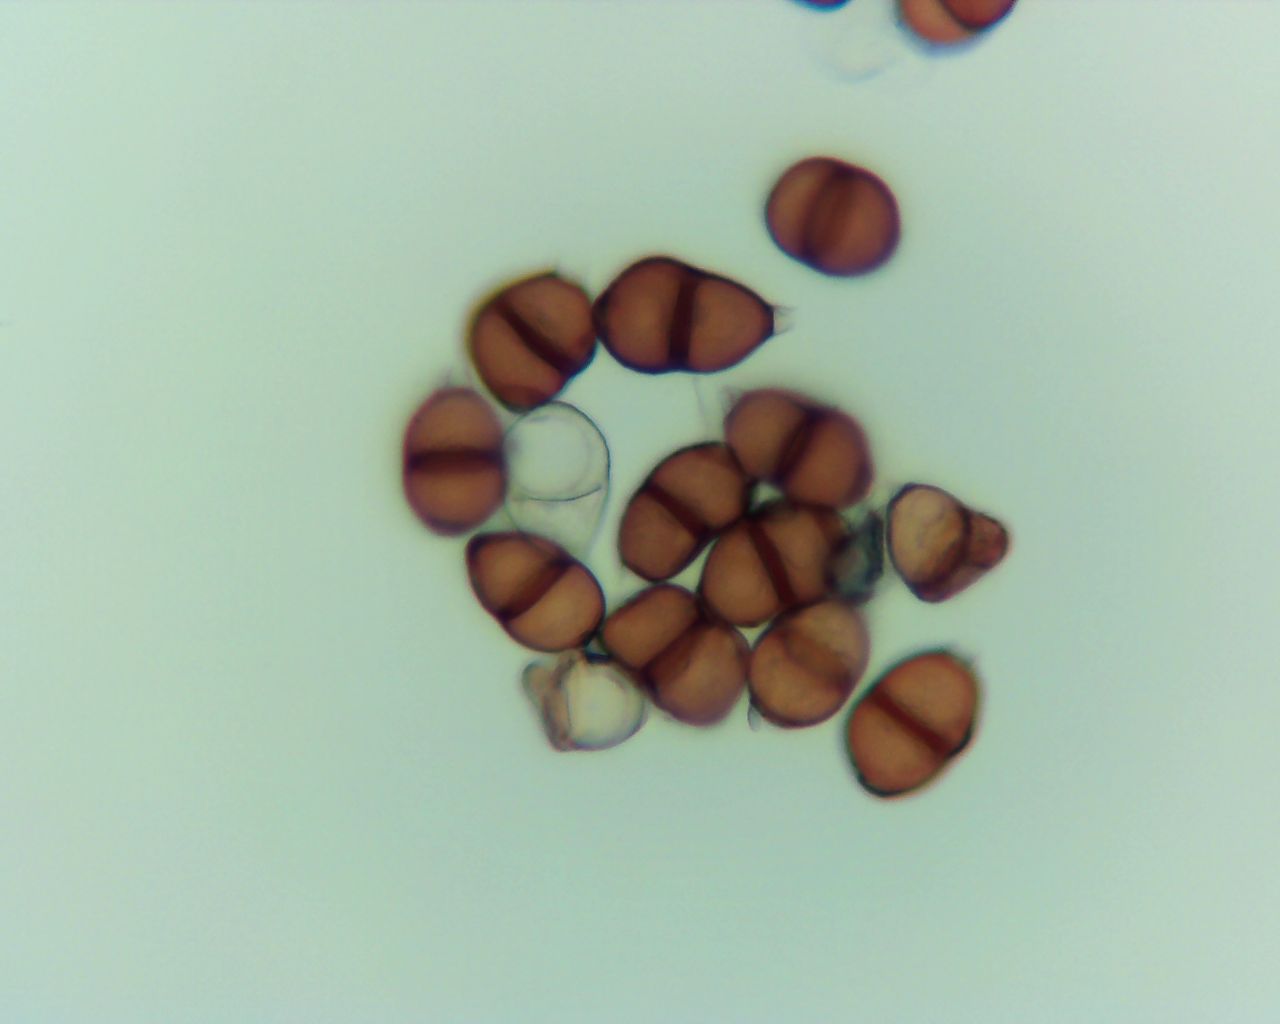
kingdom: Fungi
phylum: Basidiomycota
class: Pucciniomycetes
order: Pucciniales
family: Pucciniaceae
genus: Puccinia
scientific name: Puccinia violae
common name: viol-tvecellerust
